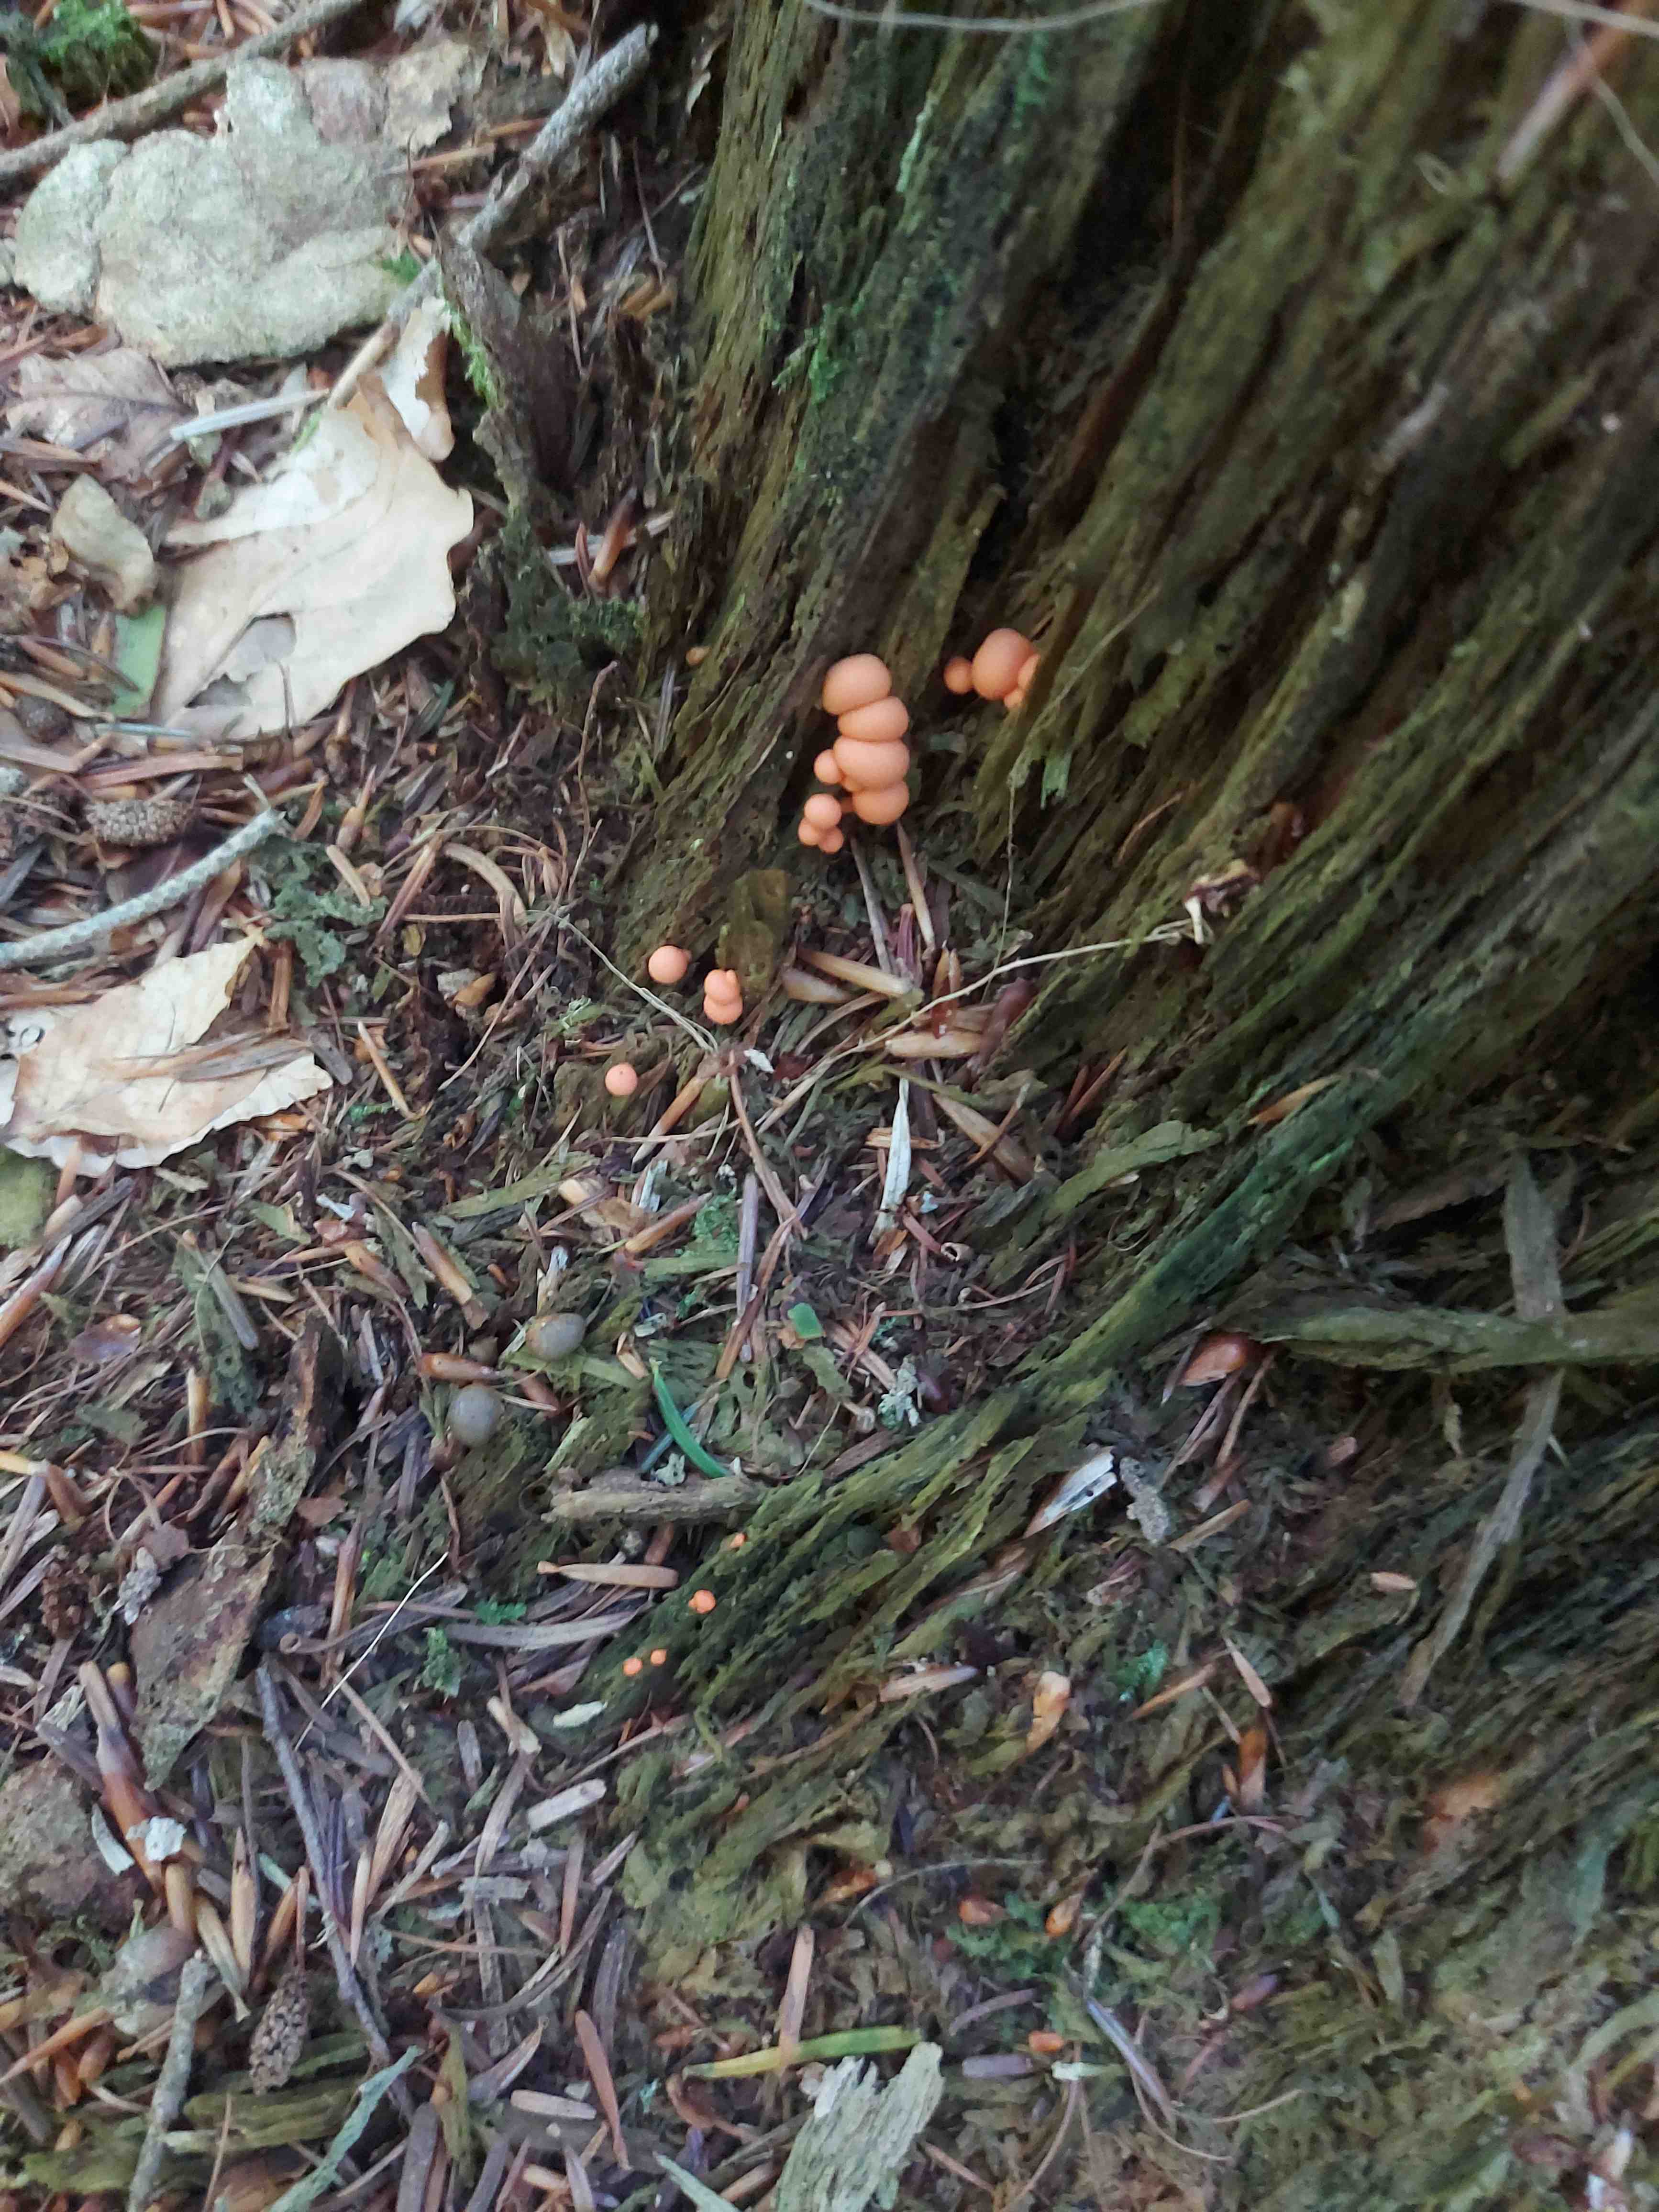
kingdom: Protozoa
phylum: Mycetozoa
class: Myxomycetes
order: Cribrariales
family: Tubiferaceae
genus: Lycogala
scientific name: Lycogala epidendrum
